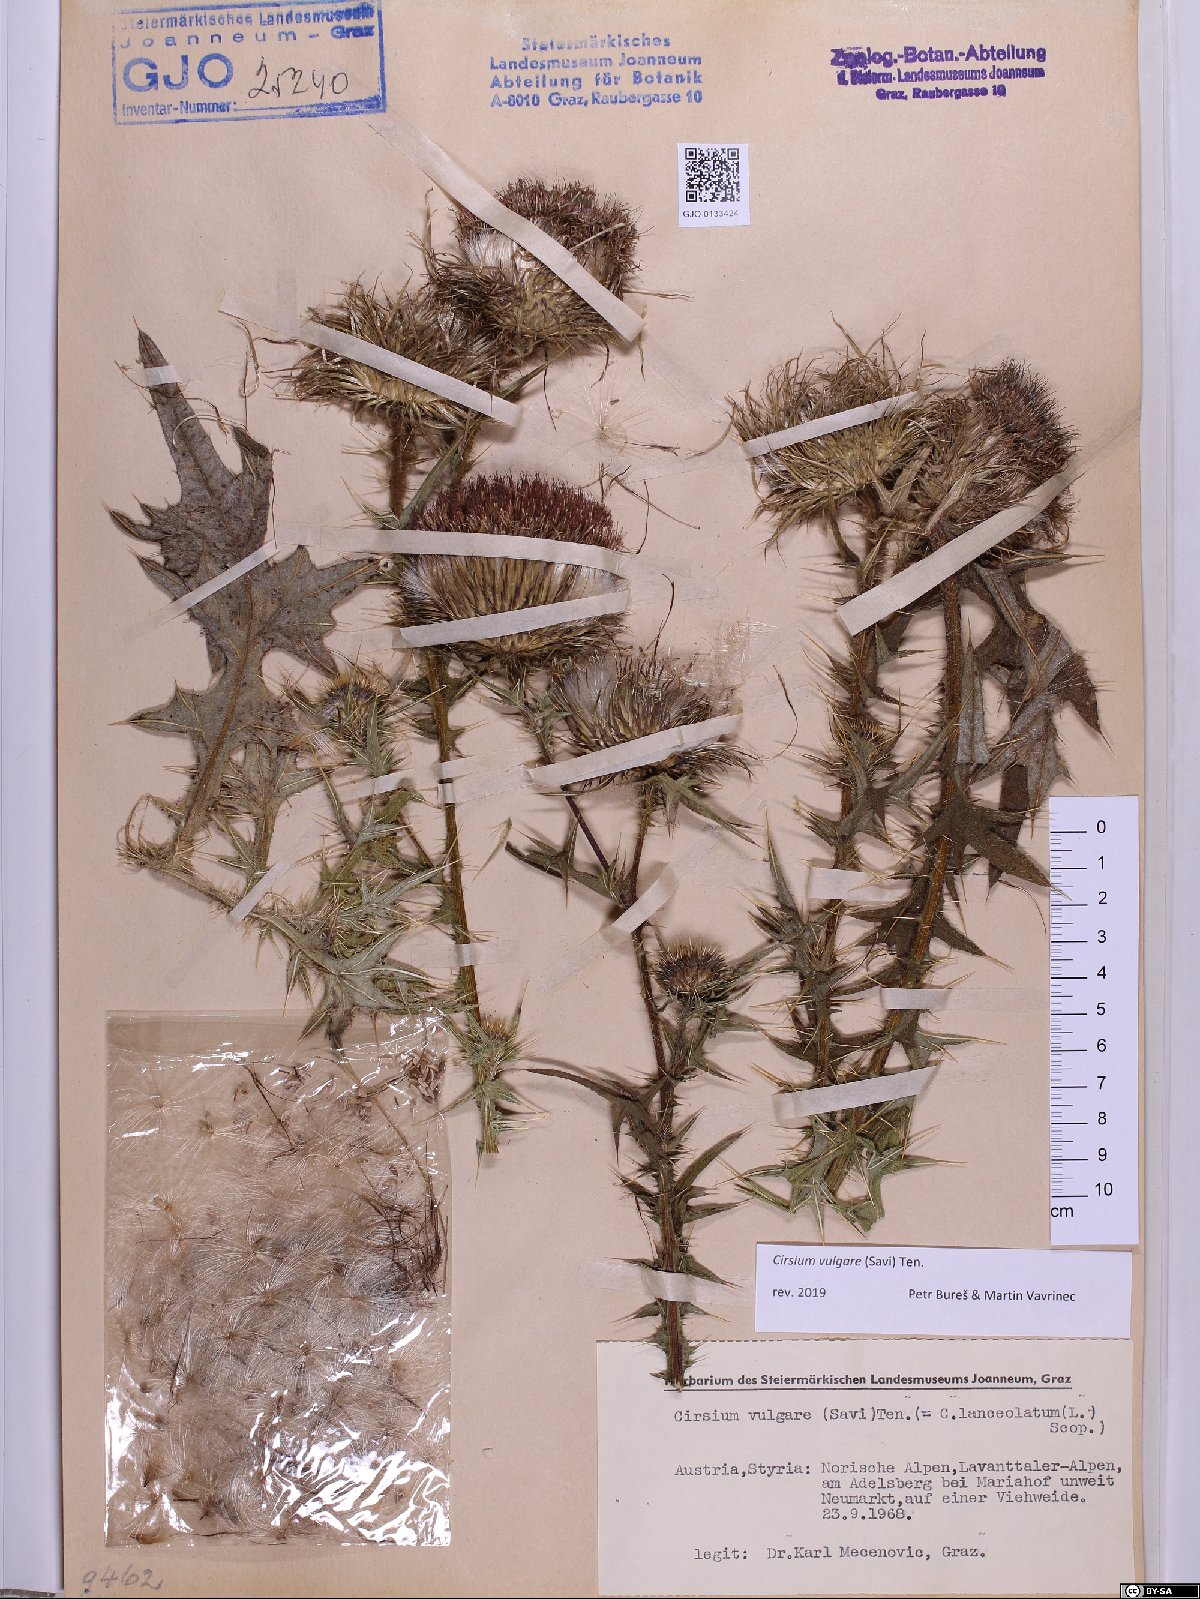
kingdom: Plantae
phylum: Tracheophyta
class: Magnoliopsida
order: Asterales
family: Asteraceae
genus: Cirsium
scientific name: Cirsium vulgare
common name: Bull thistle
